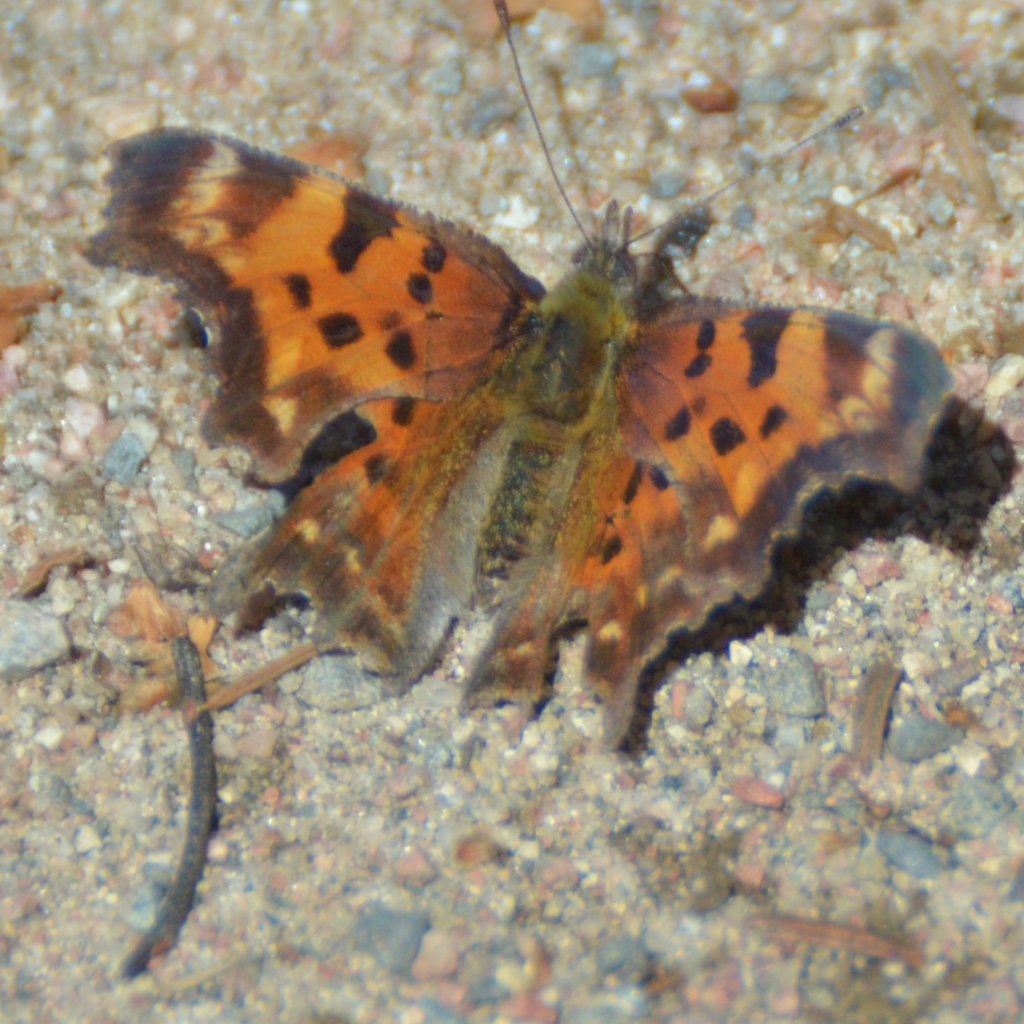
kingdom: Animalia
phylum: Arthropoda
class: Insecta
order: Lepidoptera
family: Nymphalidae
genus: Polygonia
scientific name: Polygonia faunus
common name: Green Comma
